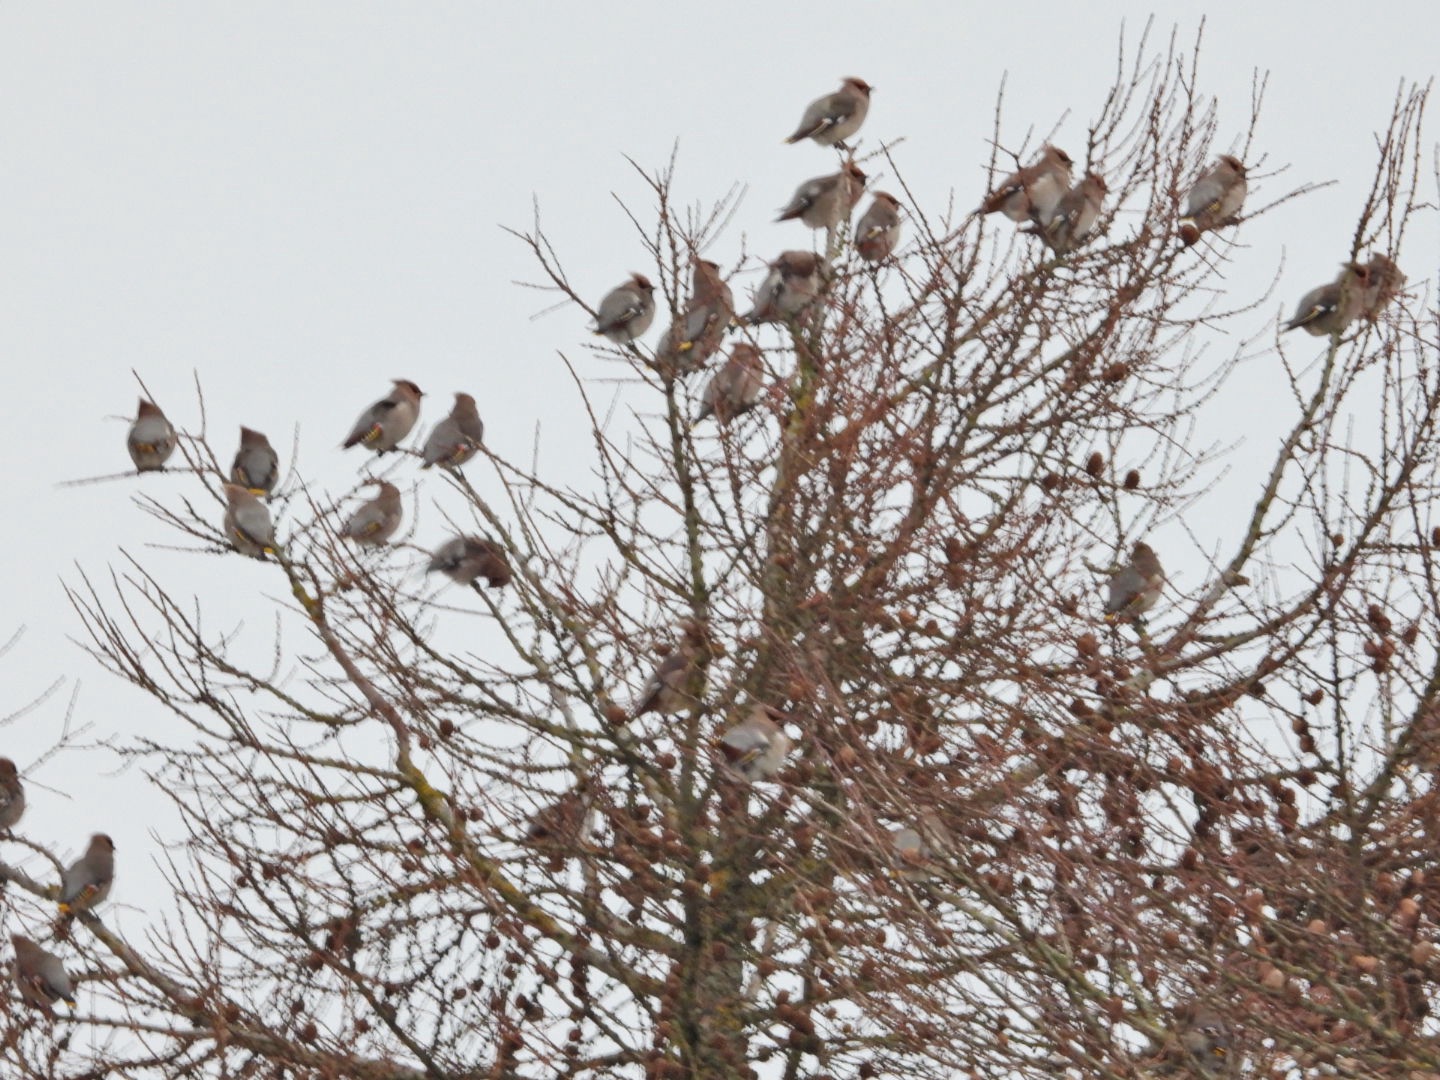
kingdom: Animalia
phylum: Chordata
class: Aves
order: Passeriformes
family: Bombycillidae
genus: Bombycilla
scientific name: Bombycilla garrulus
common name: Silkehale
